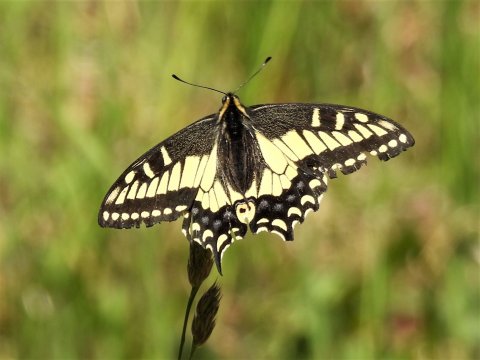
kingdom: Animalia
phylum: Arthropoda
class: Insecta
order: Lepidoptera
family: Papilionidae
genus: Papilio
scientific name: Papilio zelicaon
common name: Anise Swallowtail
